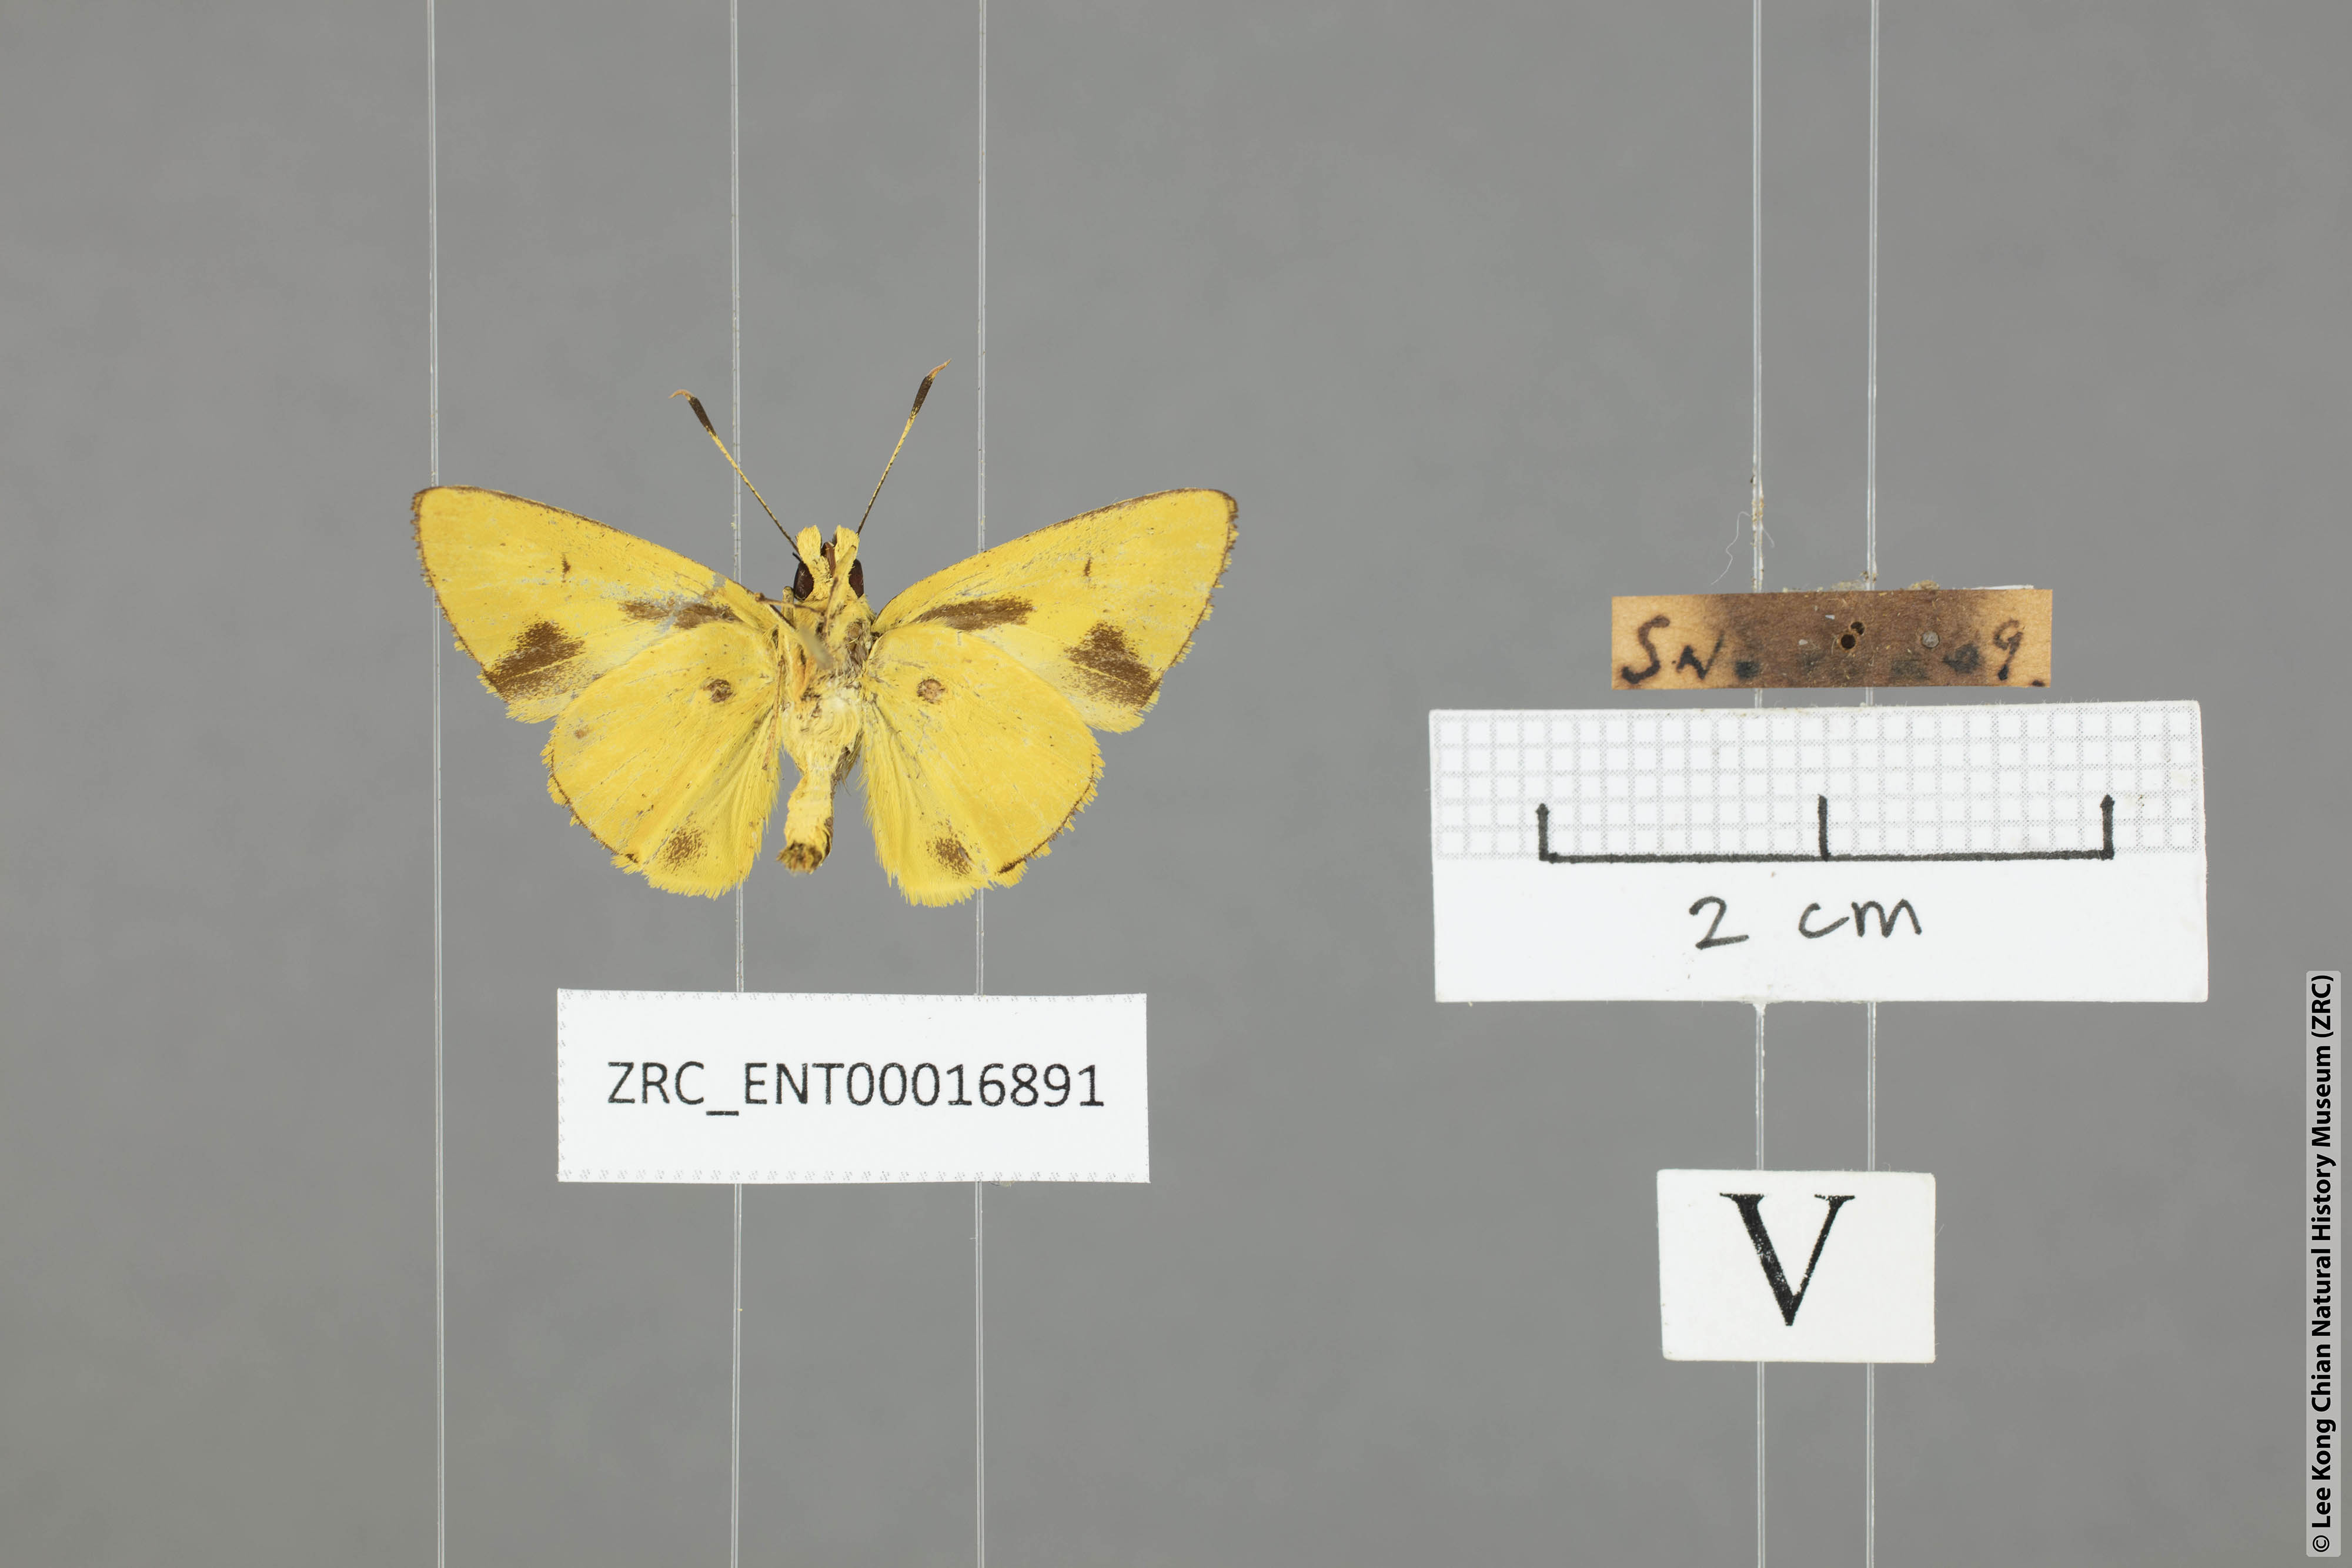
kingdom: Animalia
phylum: Arthropoda
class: Insecta
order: Lepidoptera
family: Hesperiidae
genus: Cupitha
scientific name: Cupitha purreea
